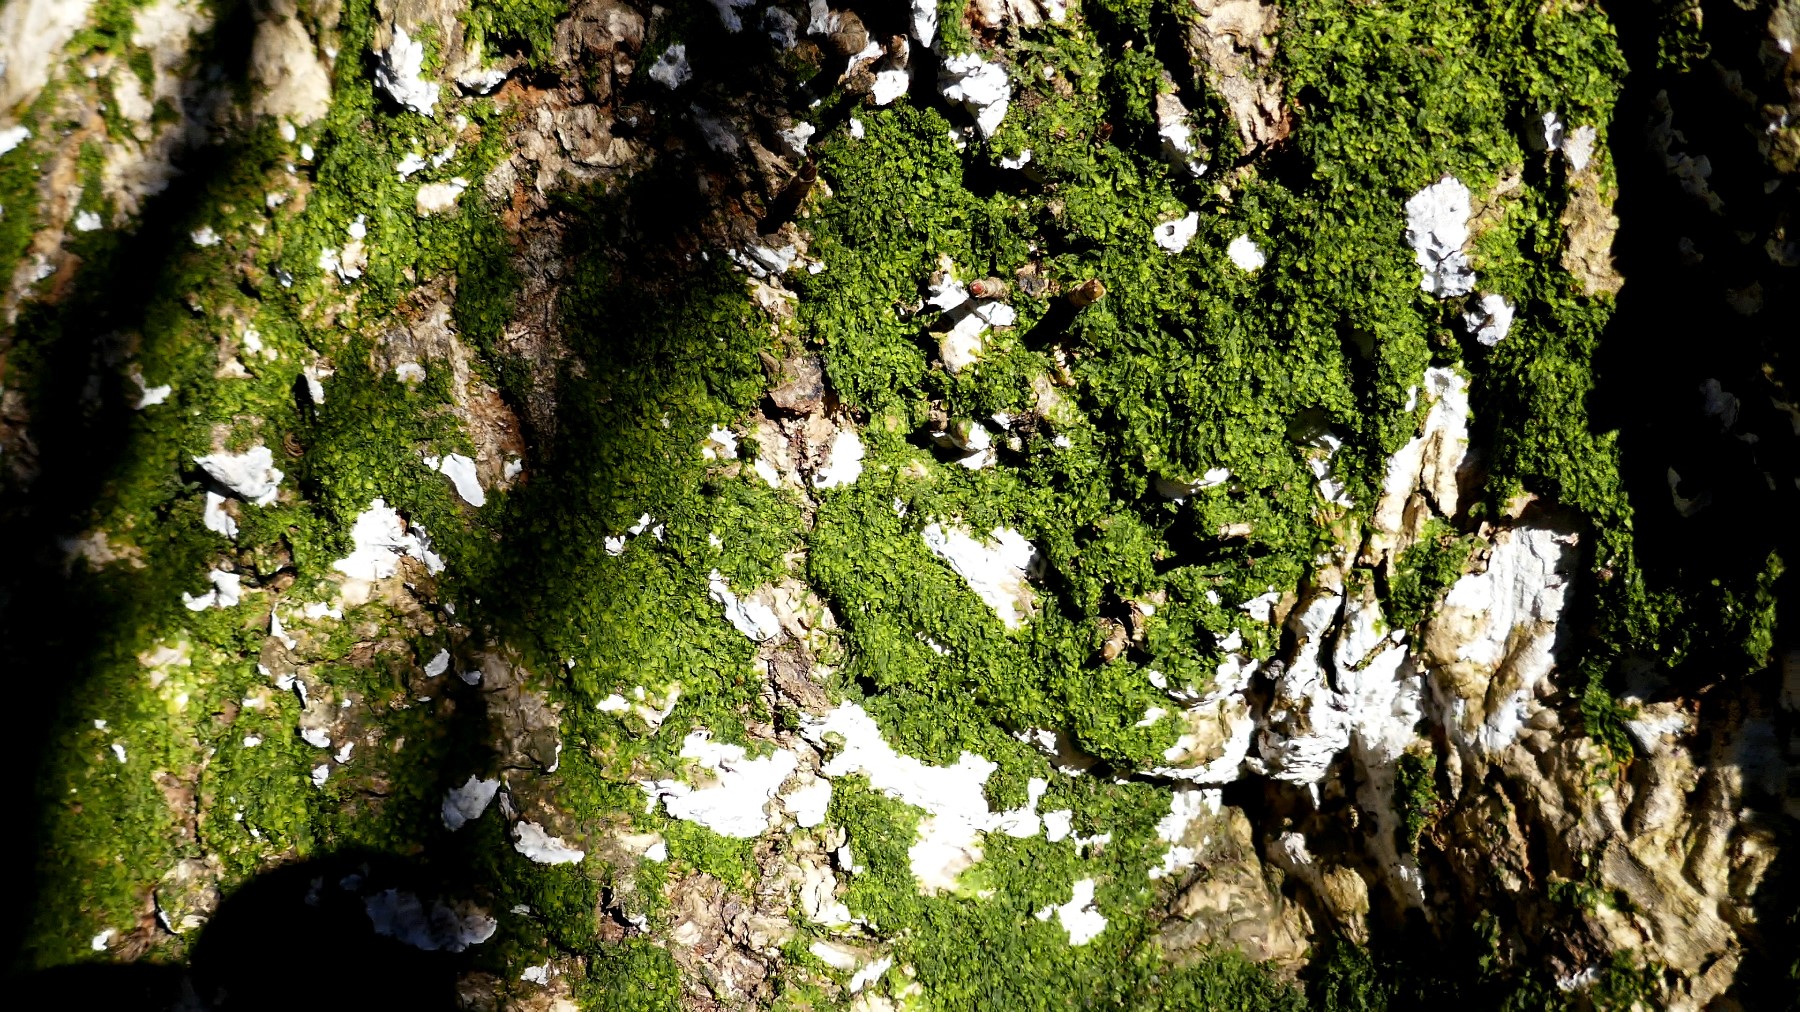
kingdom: Fungi
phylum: Basidiomycota
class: Agaricomycetes
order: Agaricales
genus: Dendrothele
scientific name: Dendrothele acerina
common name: navr-kalkplet
